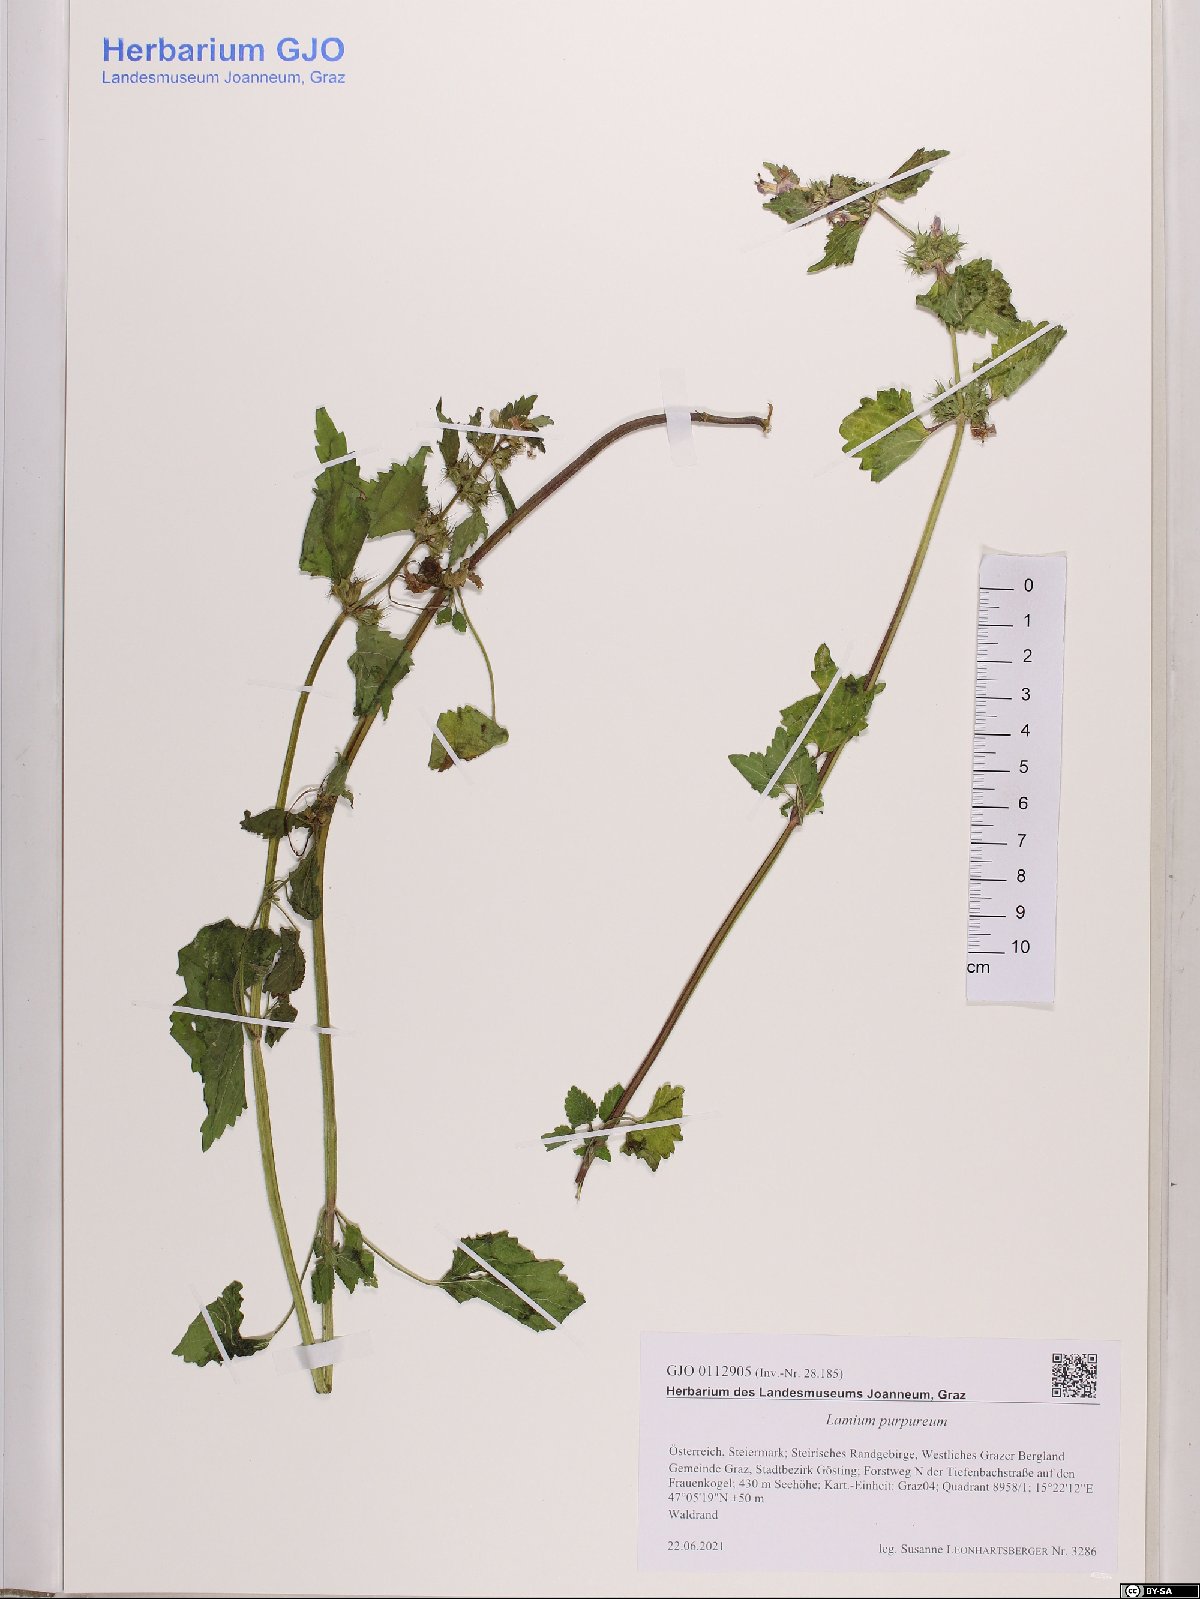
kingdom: Plantae
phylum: Tracheophyta
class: Magnoliopsida
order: Lamiales
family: Lamiaceae
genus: Lamium
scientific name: Lamium purpureum
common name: Red dead-nettle
